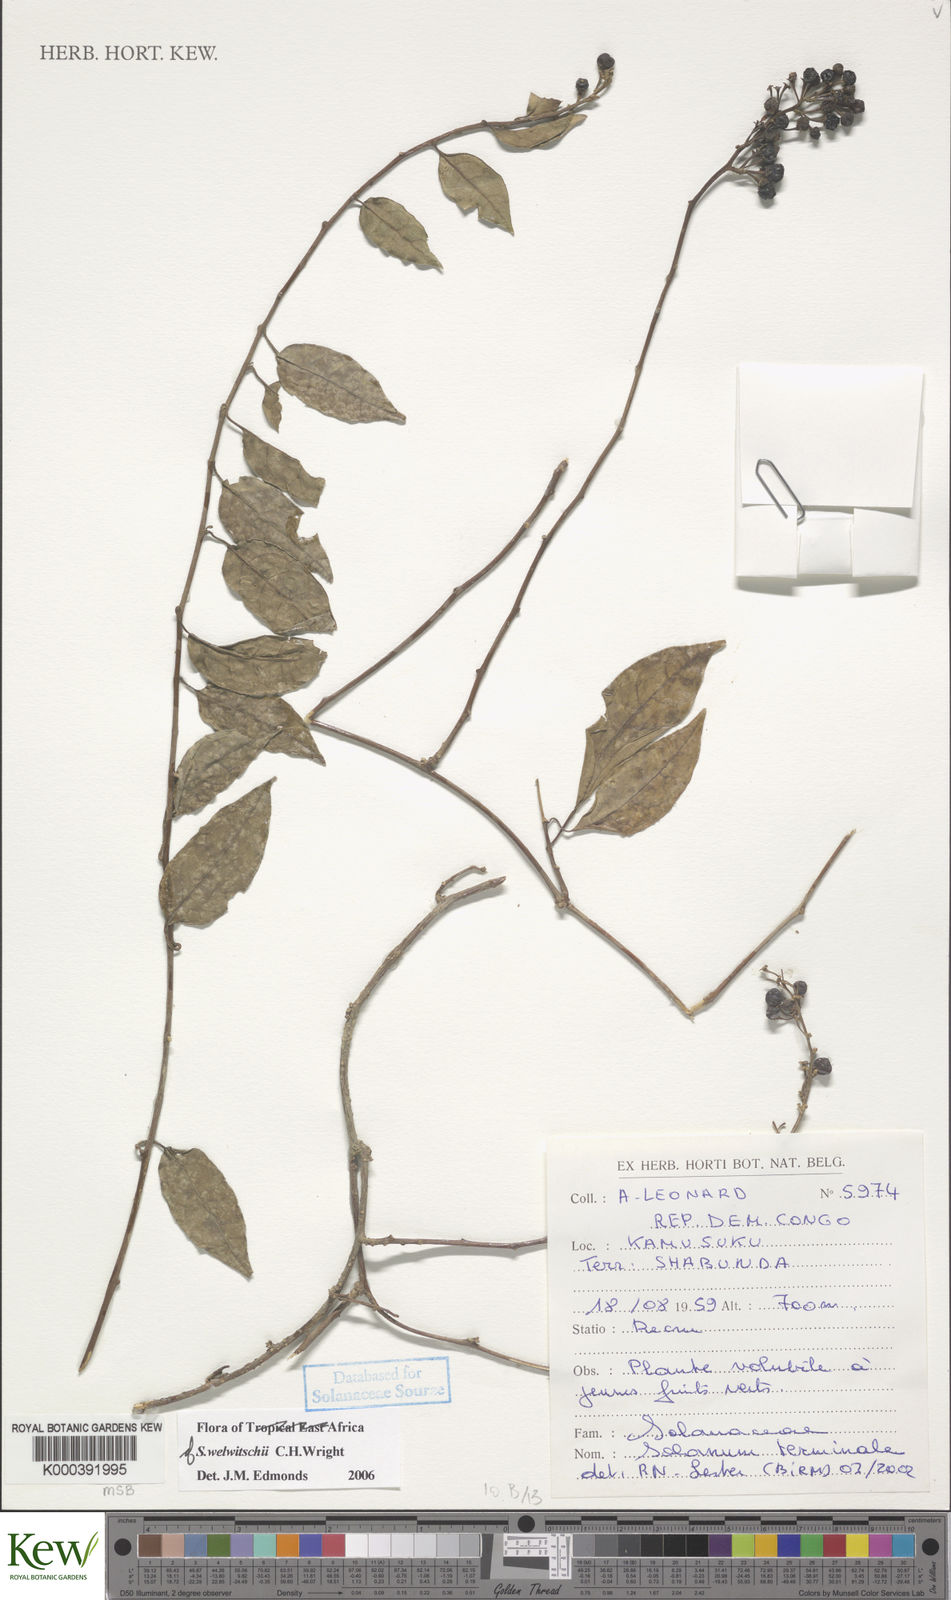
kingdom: Plantae
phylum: Tracheophyta
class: Magnoliopsida
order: Solanales
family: Solanaceae
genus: Solanum
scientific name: Solanum terminale
